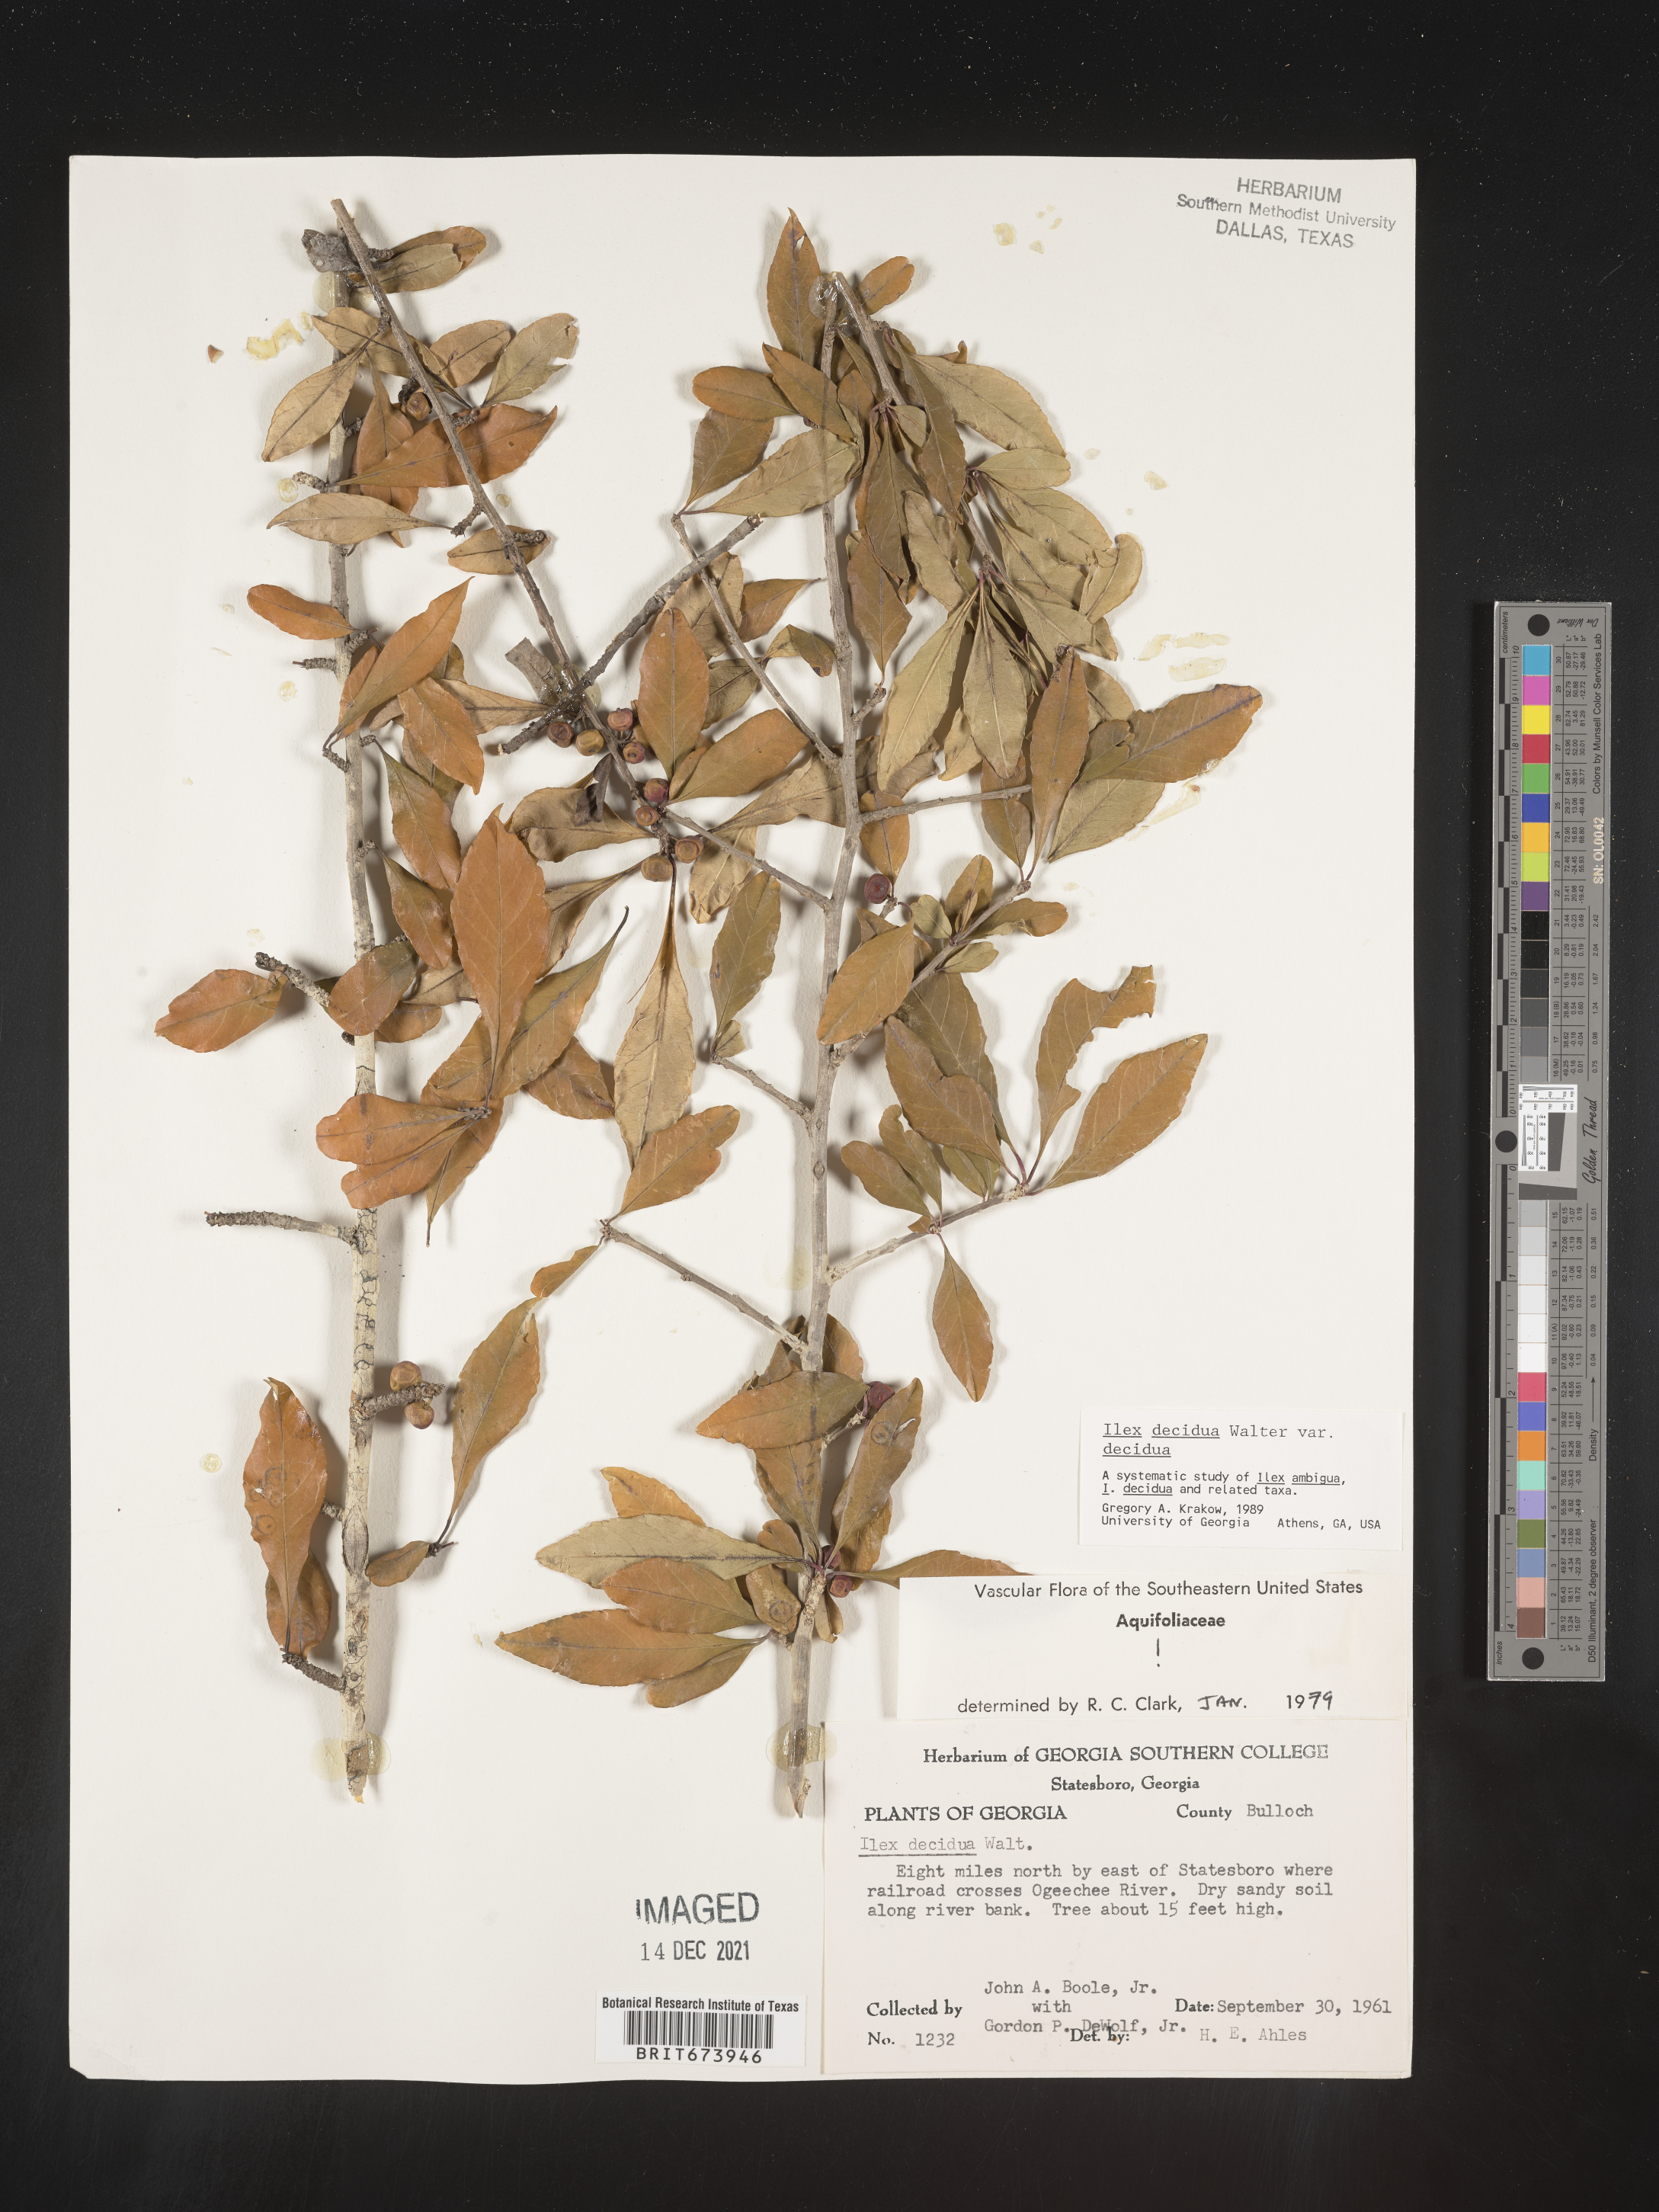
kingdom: Plantae
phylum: Tracheophyta
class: Magnoliopsida
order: Aquifoliales
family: Aquifoliaceae
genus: Ilex
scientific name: Ilex decidua
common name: Possum-haw
